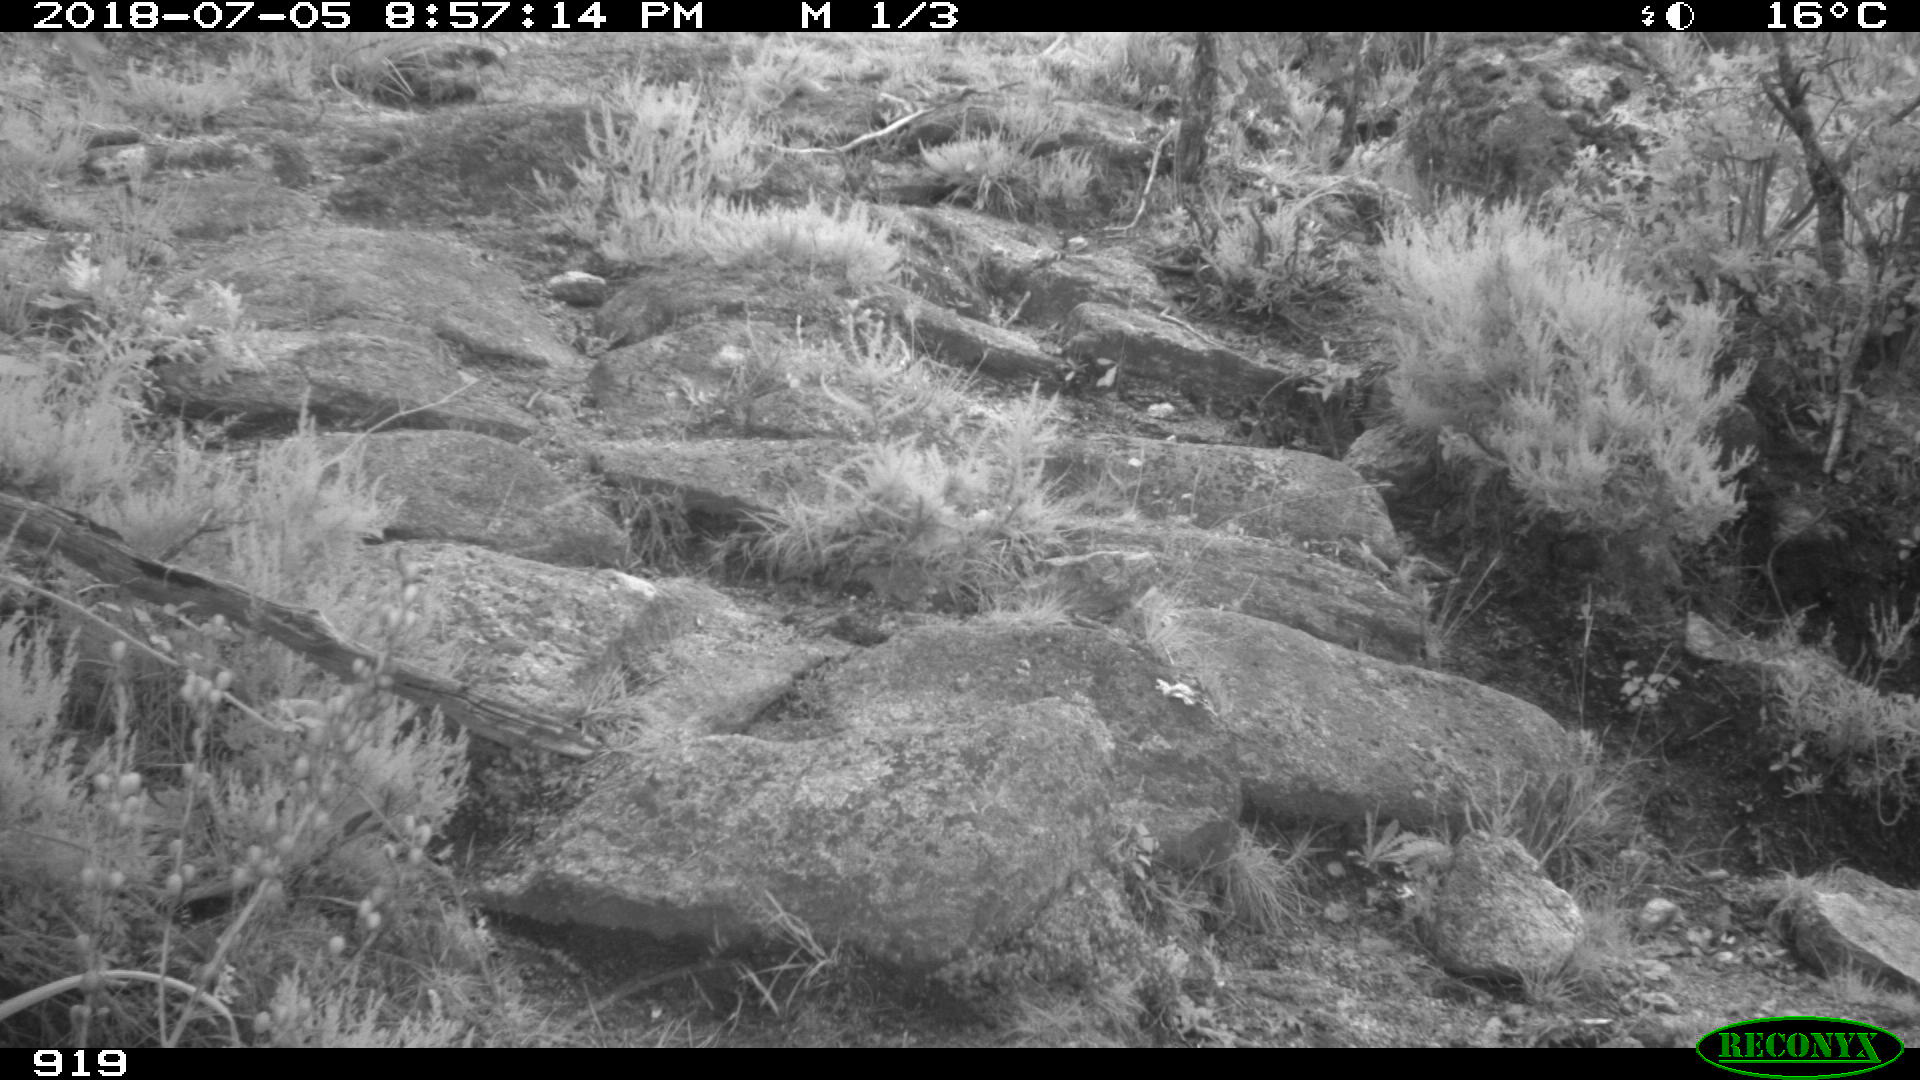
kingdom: Animalia
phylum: Chordata
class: Mammalia
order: Artiodactyla
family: Bovidae
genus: Bos
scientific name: Bos taurus
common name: Domesticated cattle
